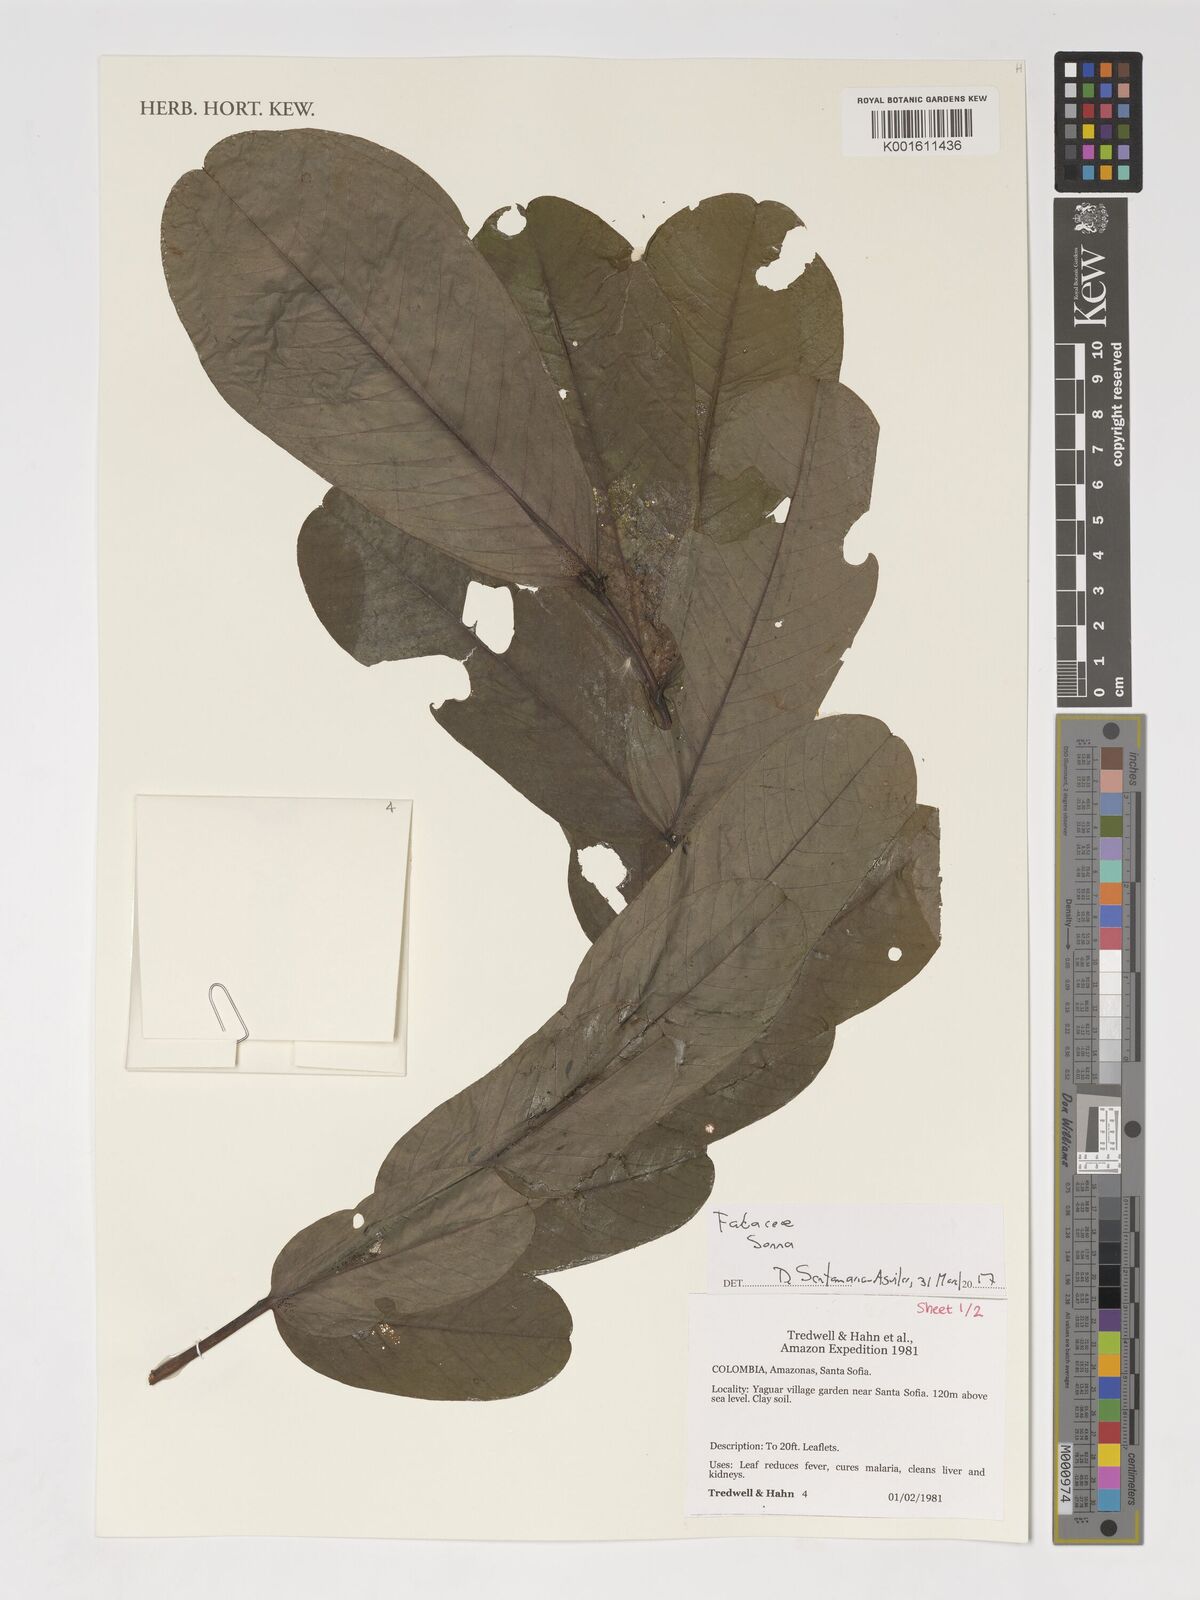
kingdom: Plantae
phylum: Tracheophyta
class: Magnoliopsida
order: Fabales
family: Fabaceae
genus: Senna
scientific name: Senna
